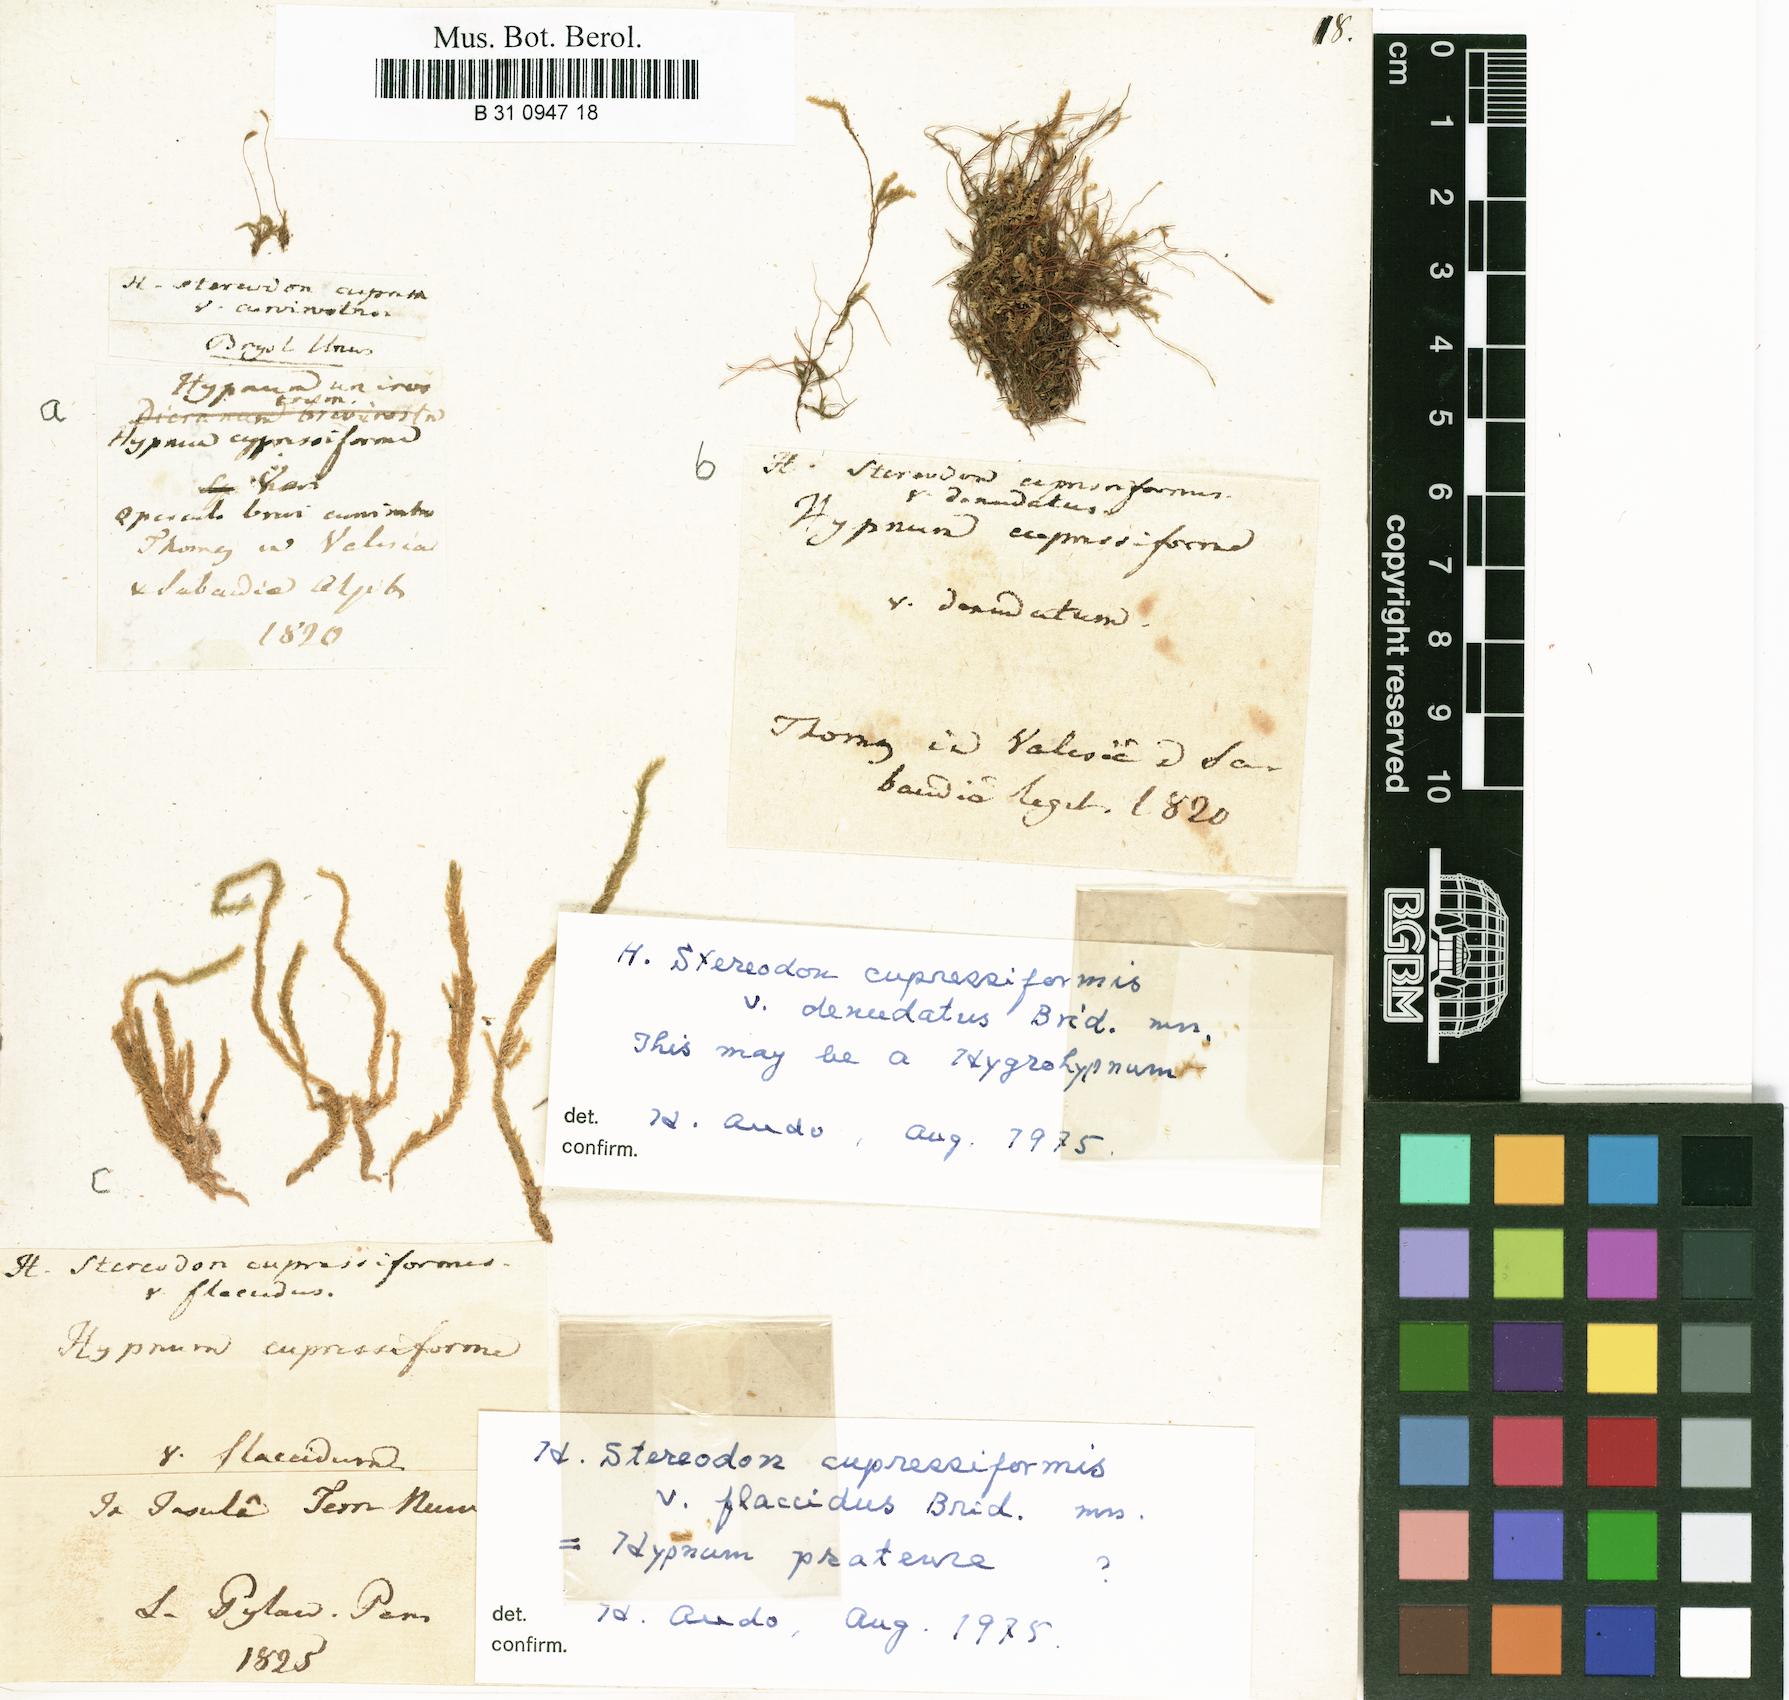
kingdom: Plantae
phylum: Bryophyta
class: Bryopsida
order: Hypnales
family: Hypnaceae
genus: Hypnum
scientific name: Hypnum cupressiforme
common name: Cypress-leaved plait-moss
